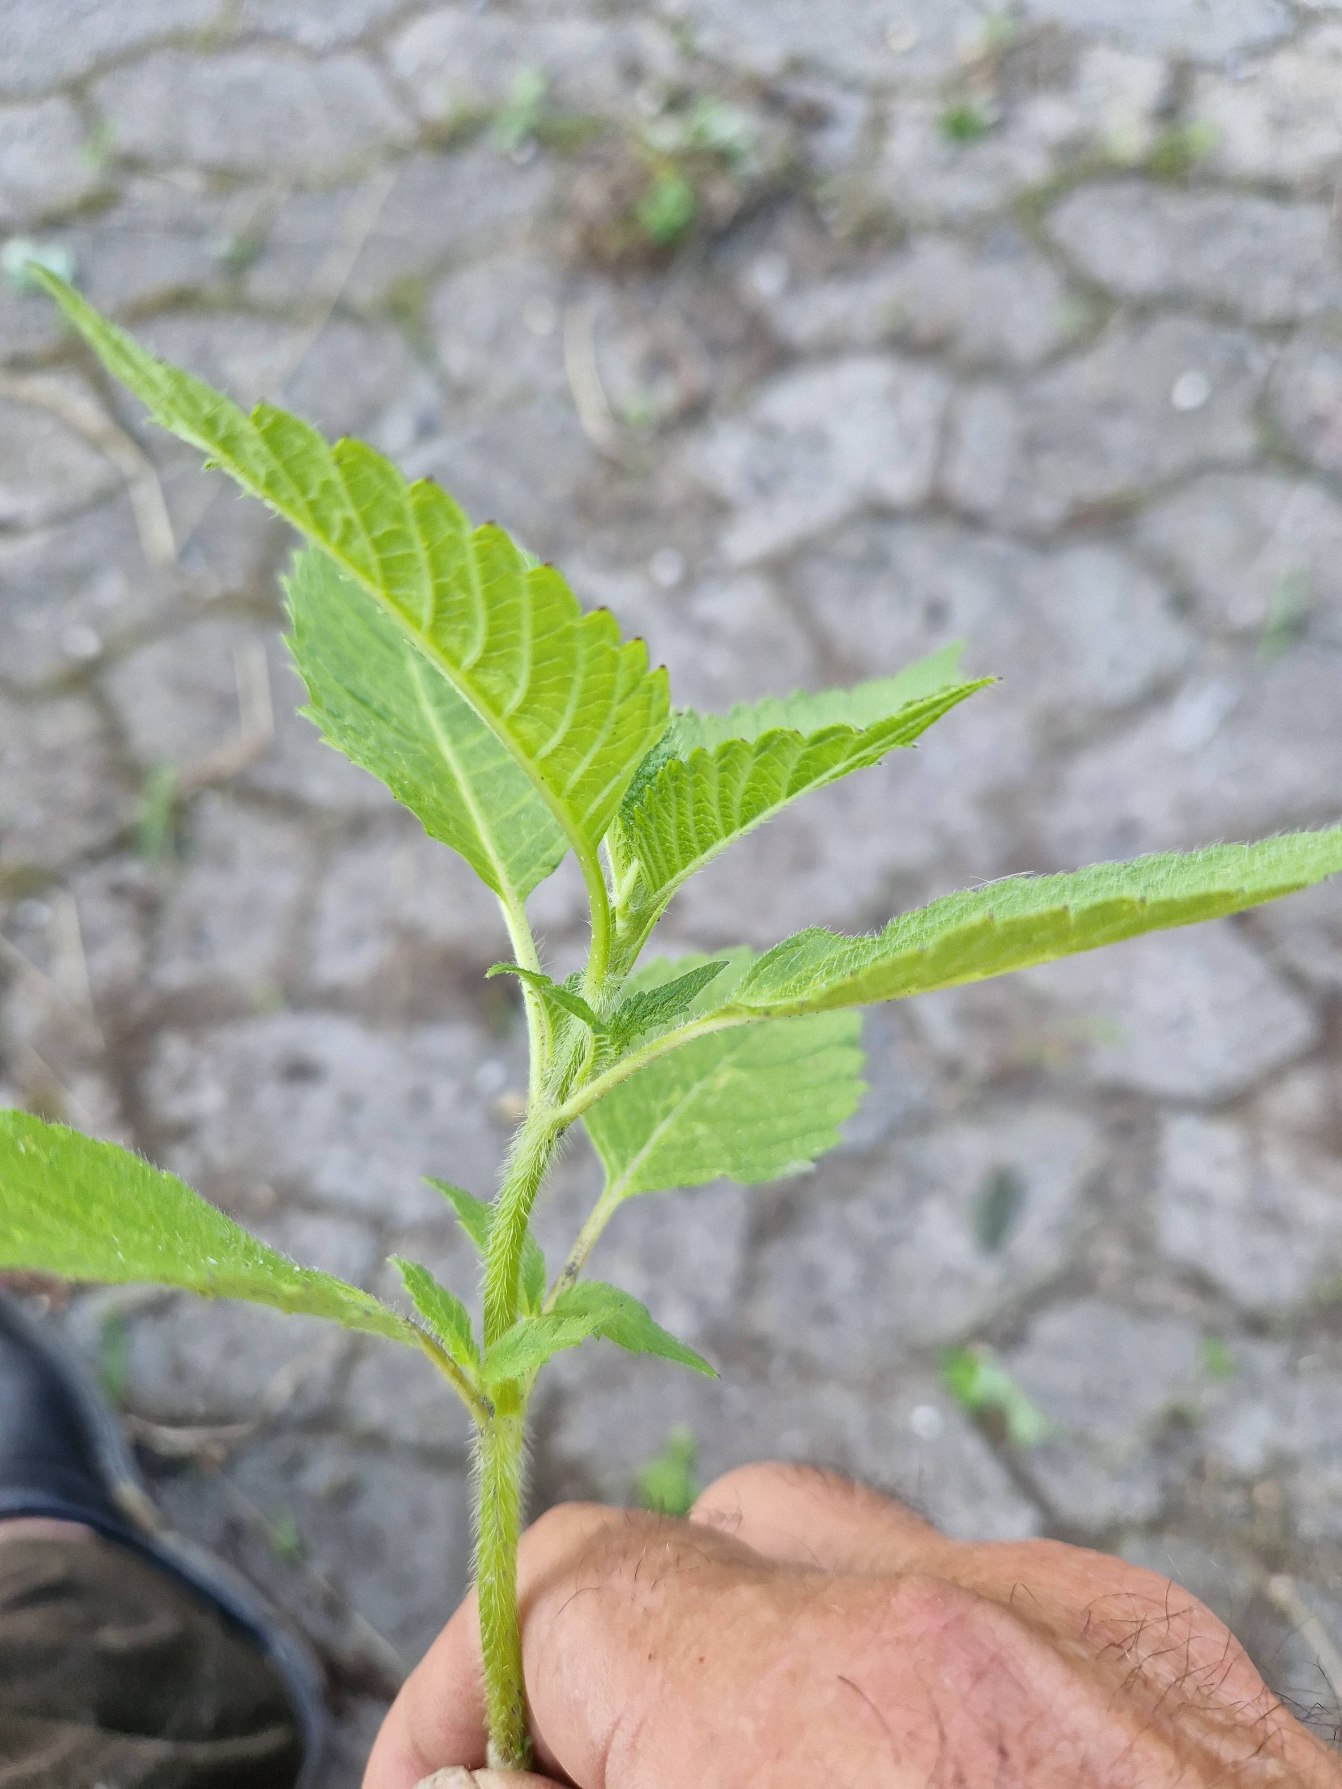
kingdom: Plantae
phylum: Tracheophyta
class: Magnoliopsida
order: Lamiales
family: Lamiaceae
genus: Galeopsis
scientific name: Galeopsis
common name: Hanekroslægten
